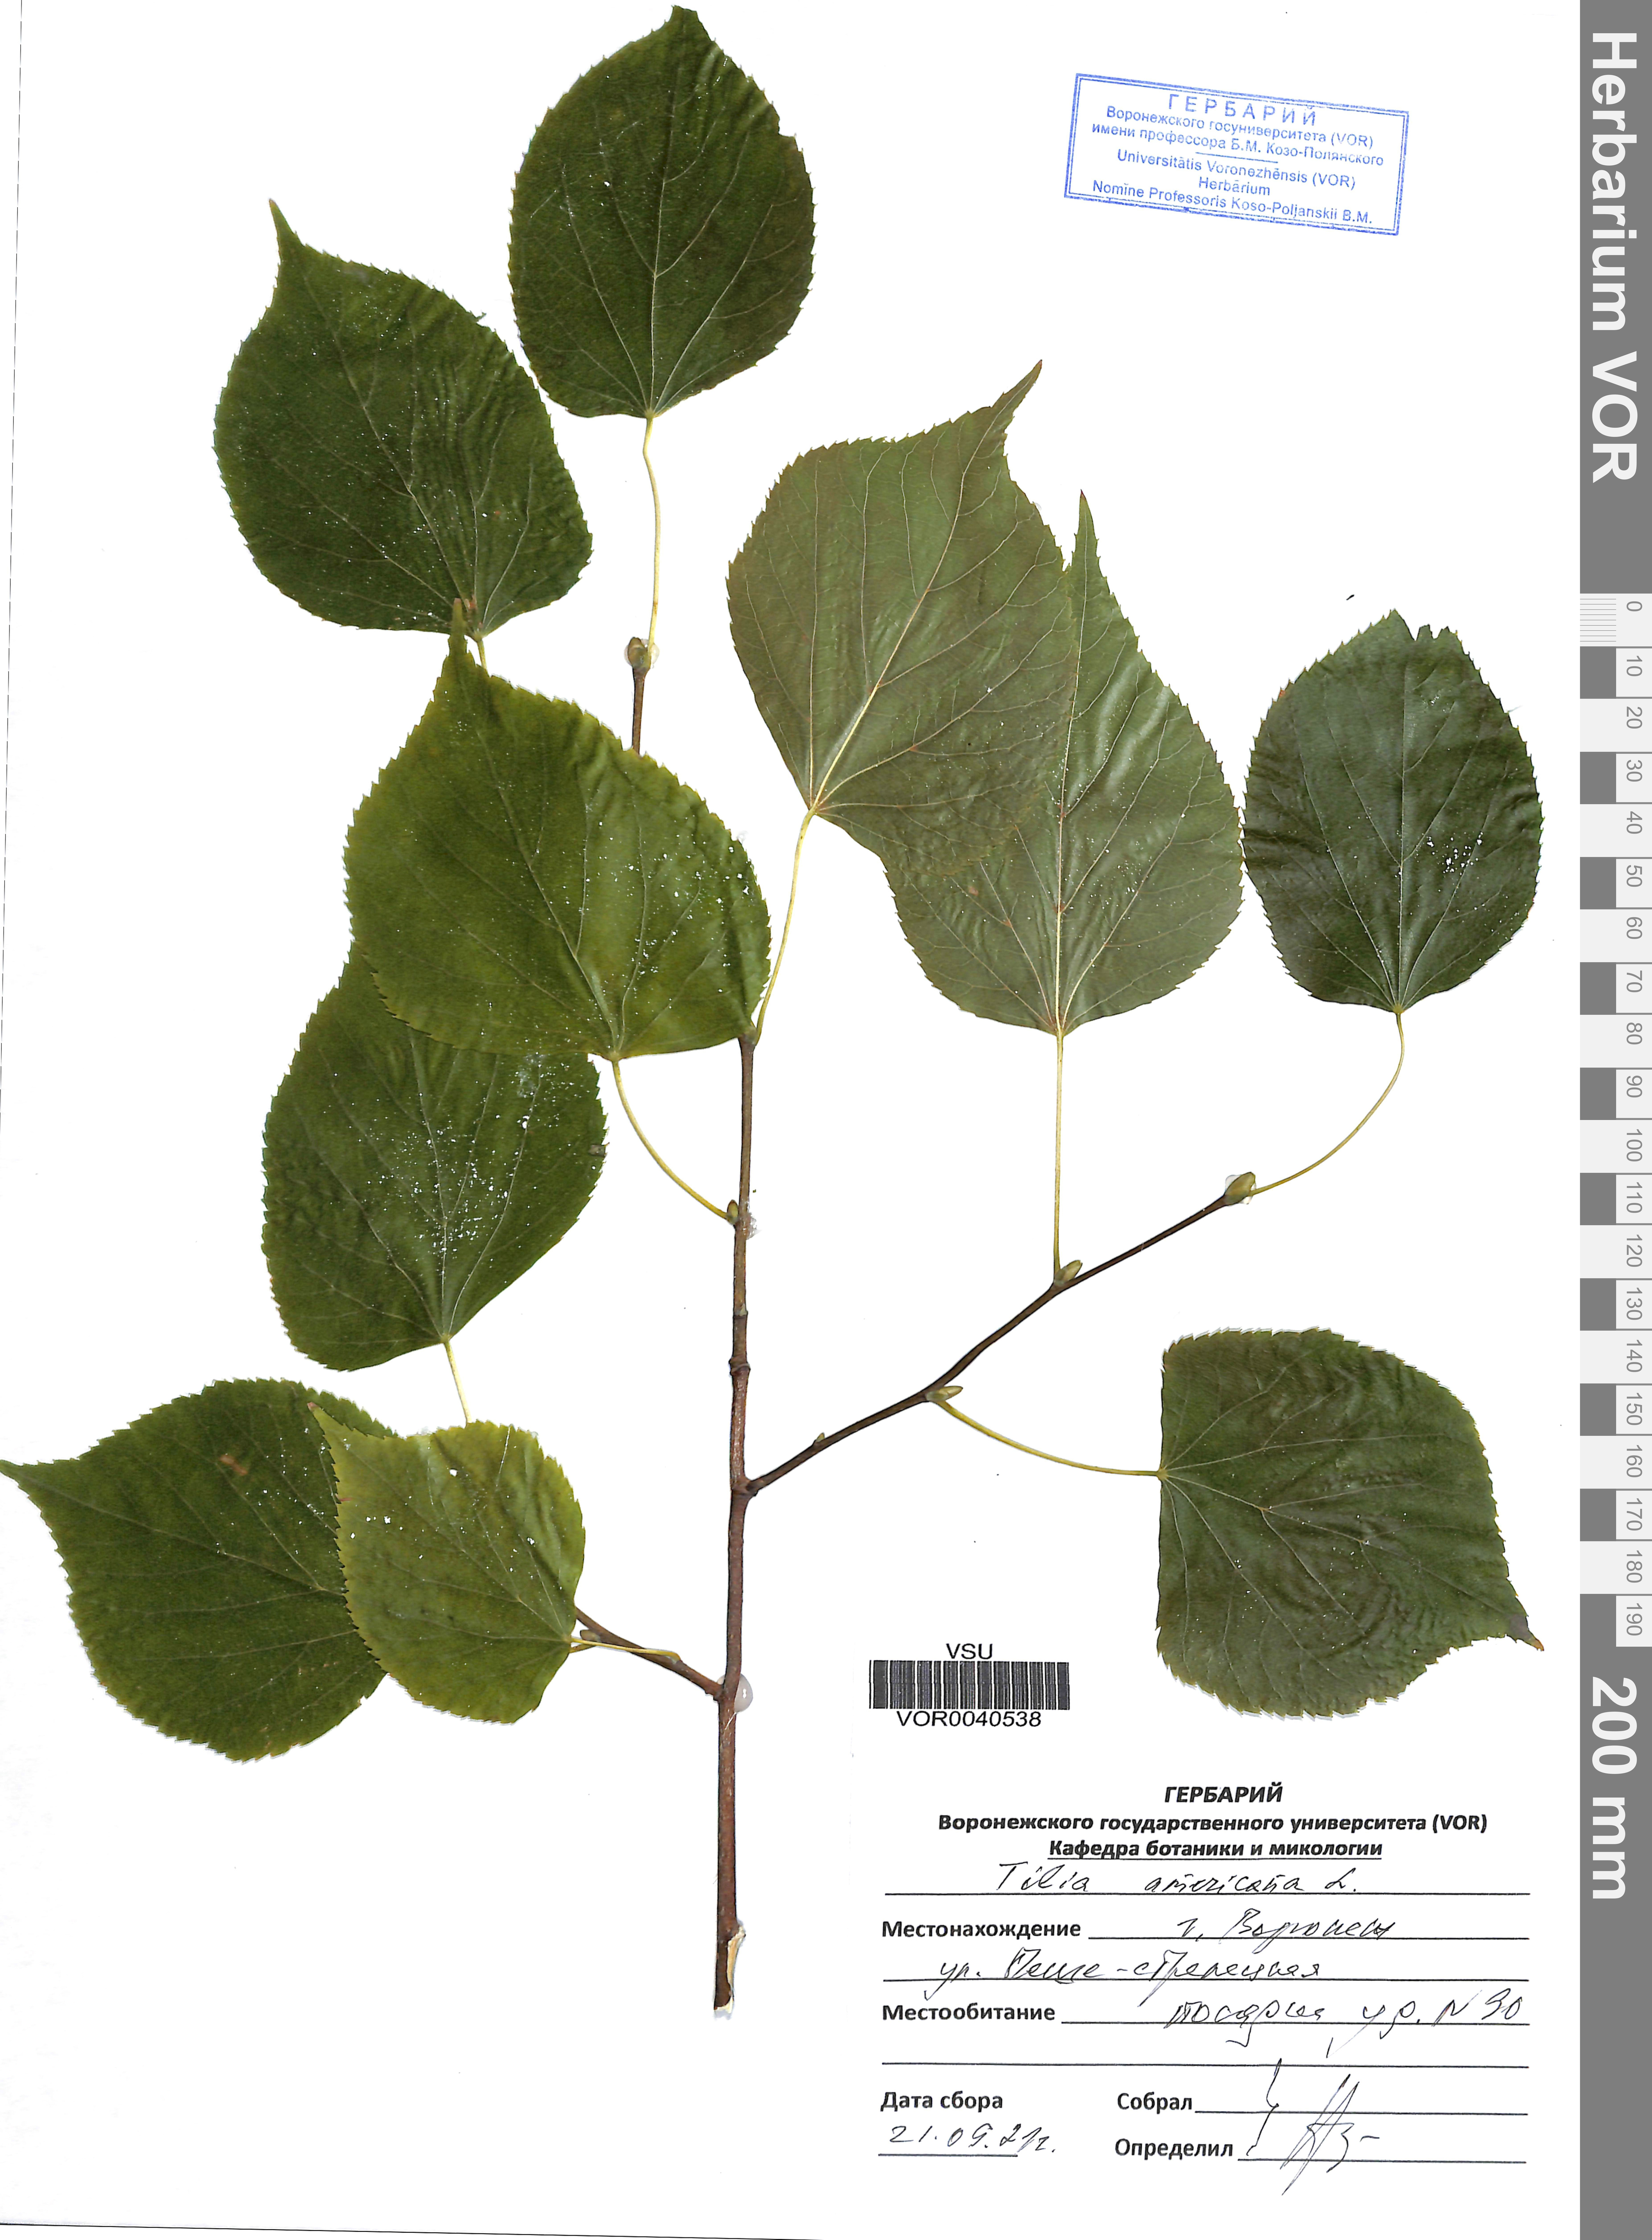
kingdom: Plantae
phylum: Tracheophyta
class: Magnoliopsida
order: Malvales
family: Malvaceae
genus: Tilia
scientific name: Tilia americana
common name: Basswood
